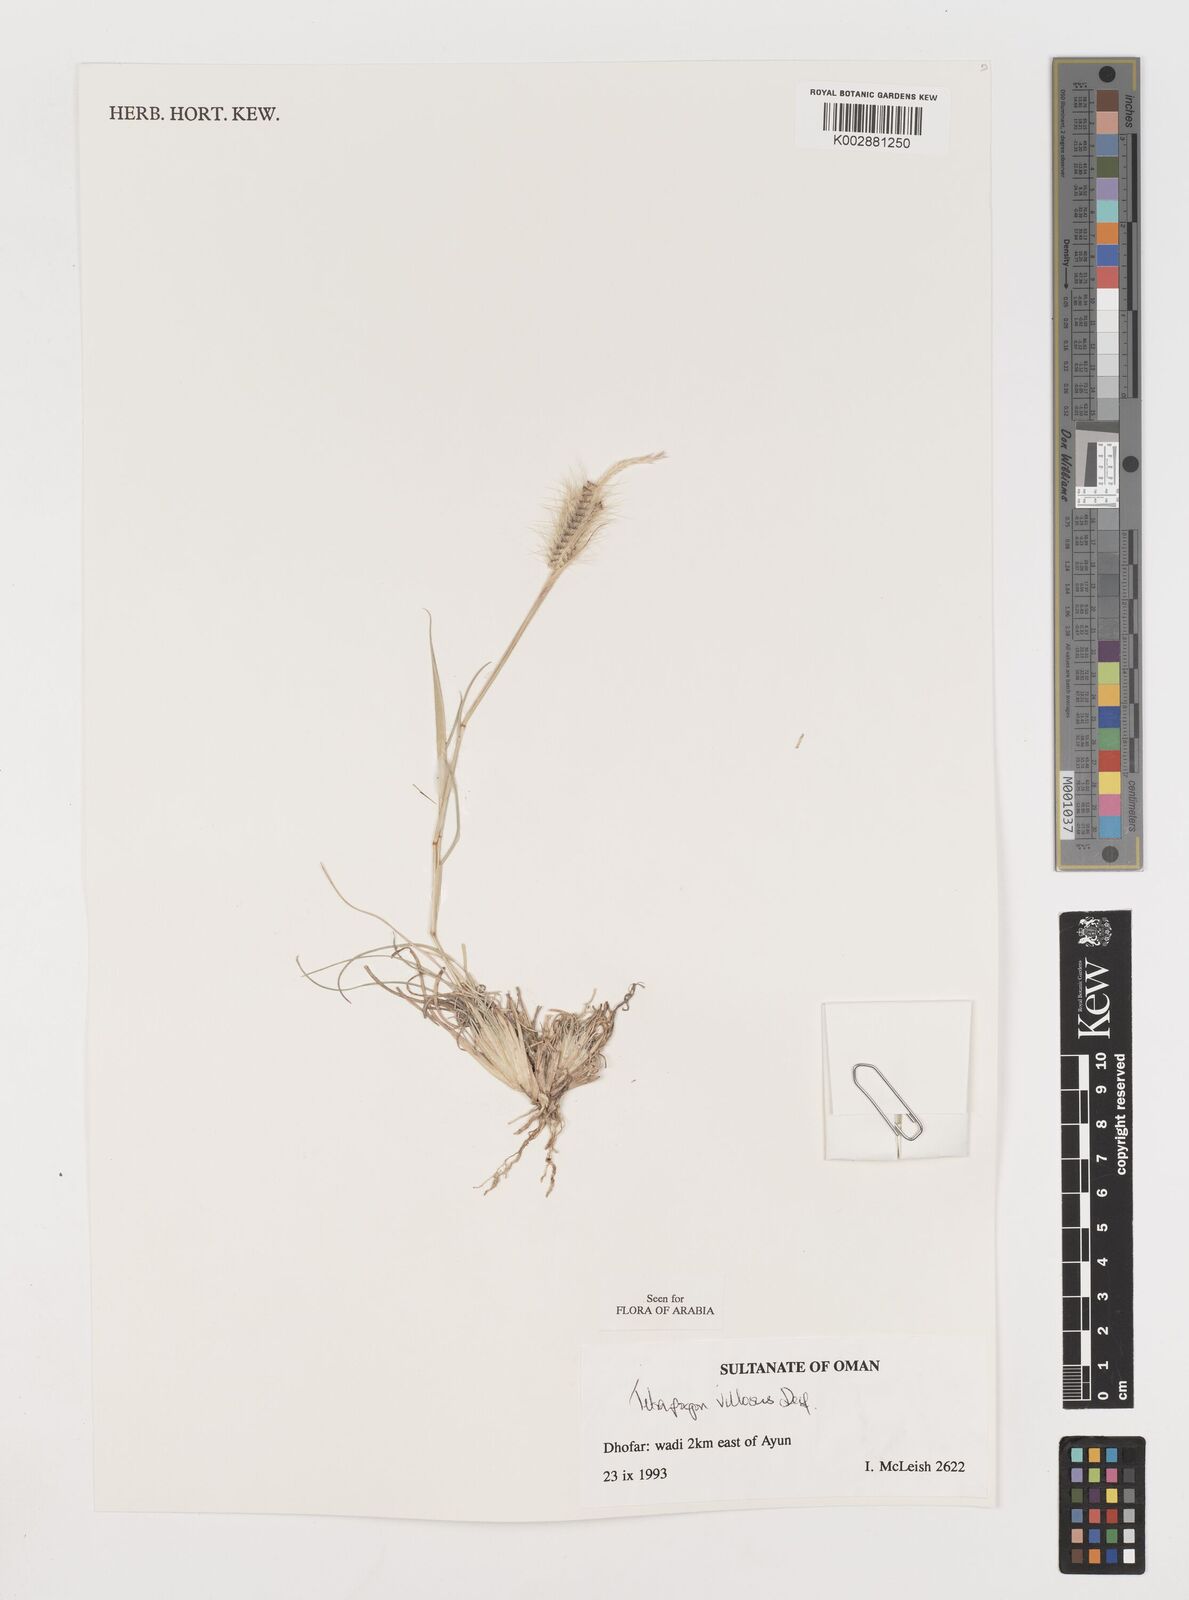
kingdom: Plantae
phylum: Tracheophyta
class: Liliopsida
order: Poales
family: Poaceae
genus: Tetrapogon
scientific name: Tetrapogon villosus
